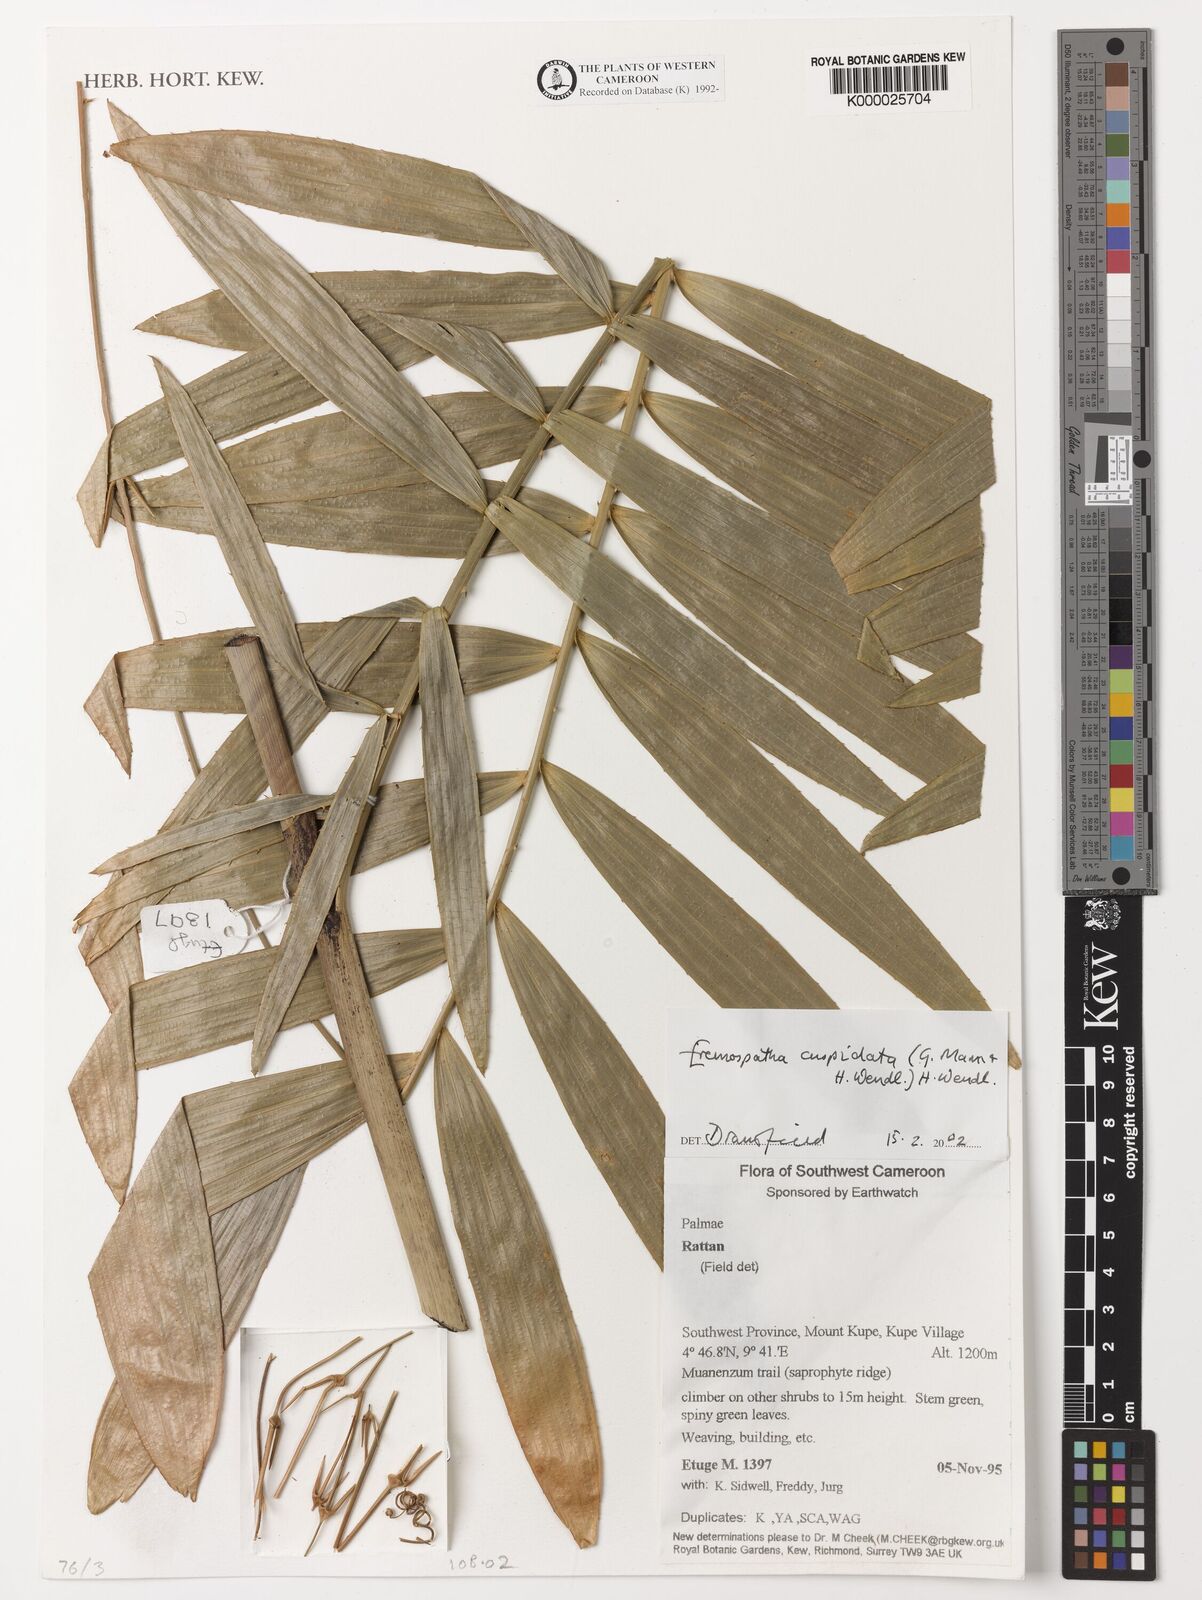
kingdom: Plantae
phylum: Tracheophyta
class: Liliopsida
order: Arecales
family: Arecaceae
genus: Eremospatha
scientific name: Eremospatha cuspidata
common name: Rattan
